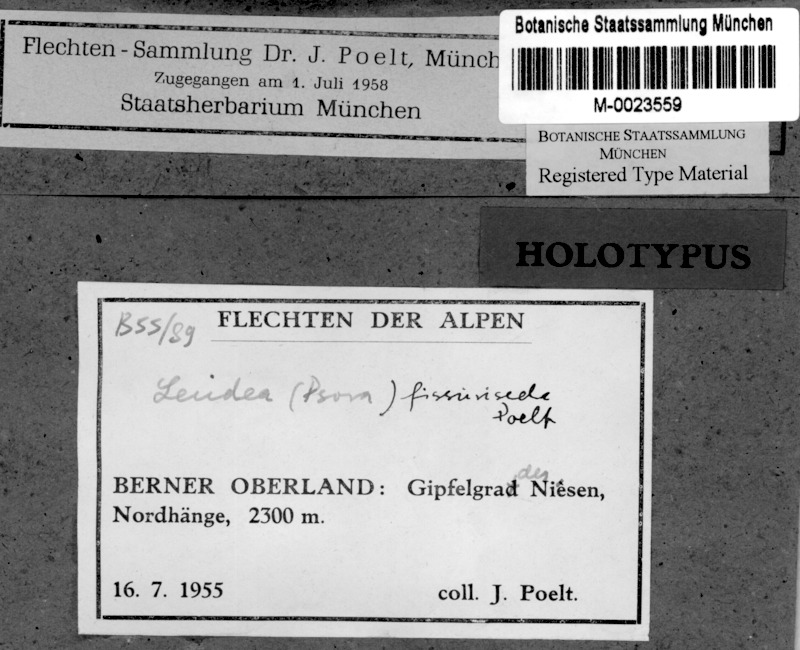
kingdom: Fungi
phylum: Ascomycota
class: Lecanoromycetes
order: Lecideales
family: Lecideaceae
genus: Bryobilimbia
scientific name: Bryobilimbia fissuriseda
